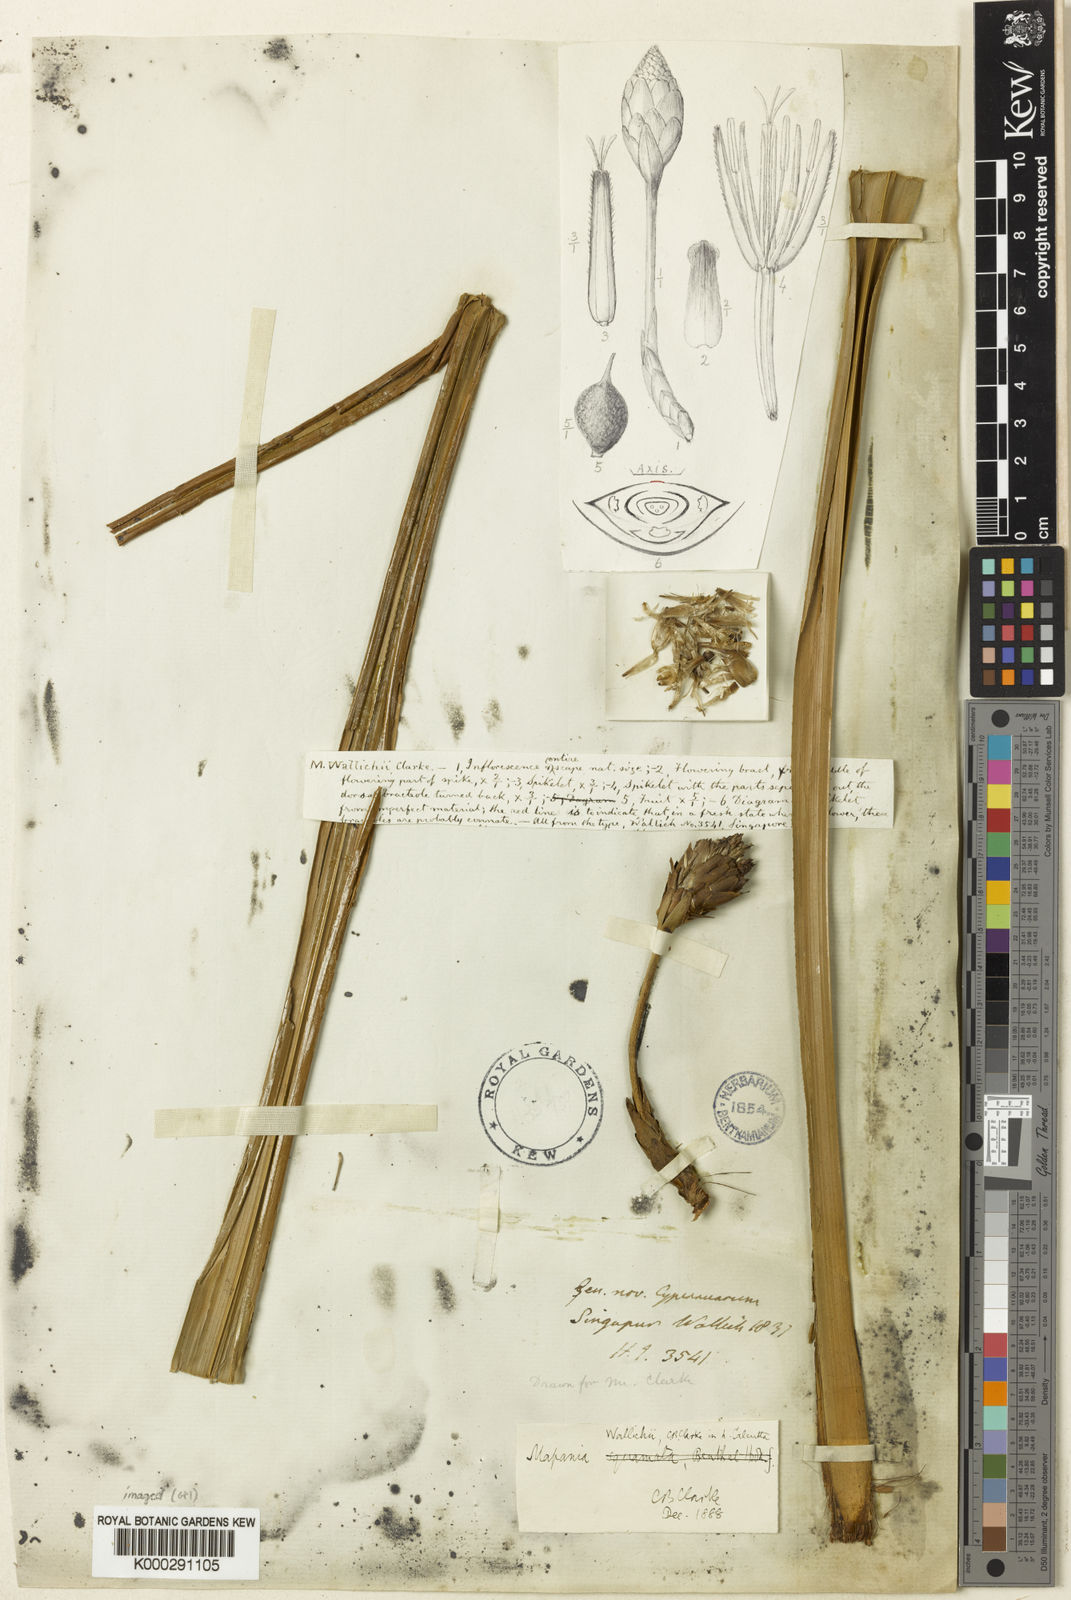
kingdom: Plantae
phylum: Tracheophyta
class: Liliopsida
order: Poales
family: Cyperaceae
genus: Mapania
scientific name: Mapania wallichii
